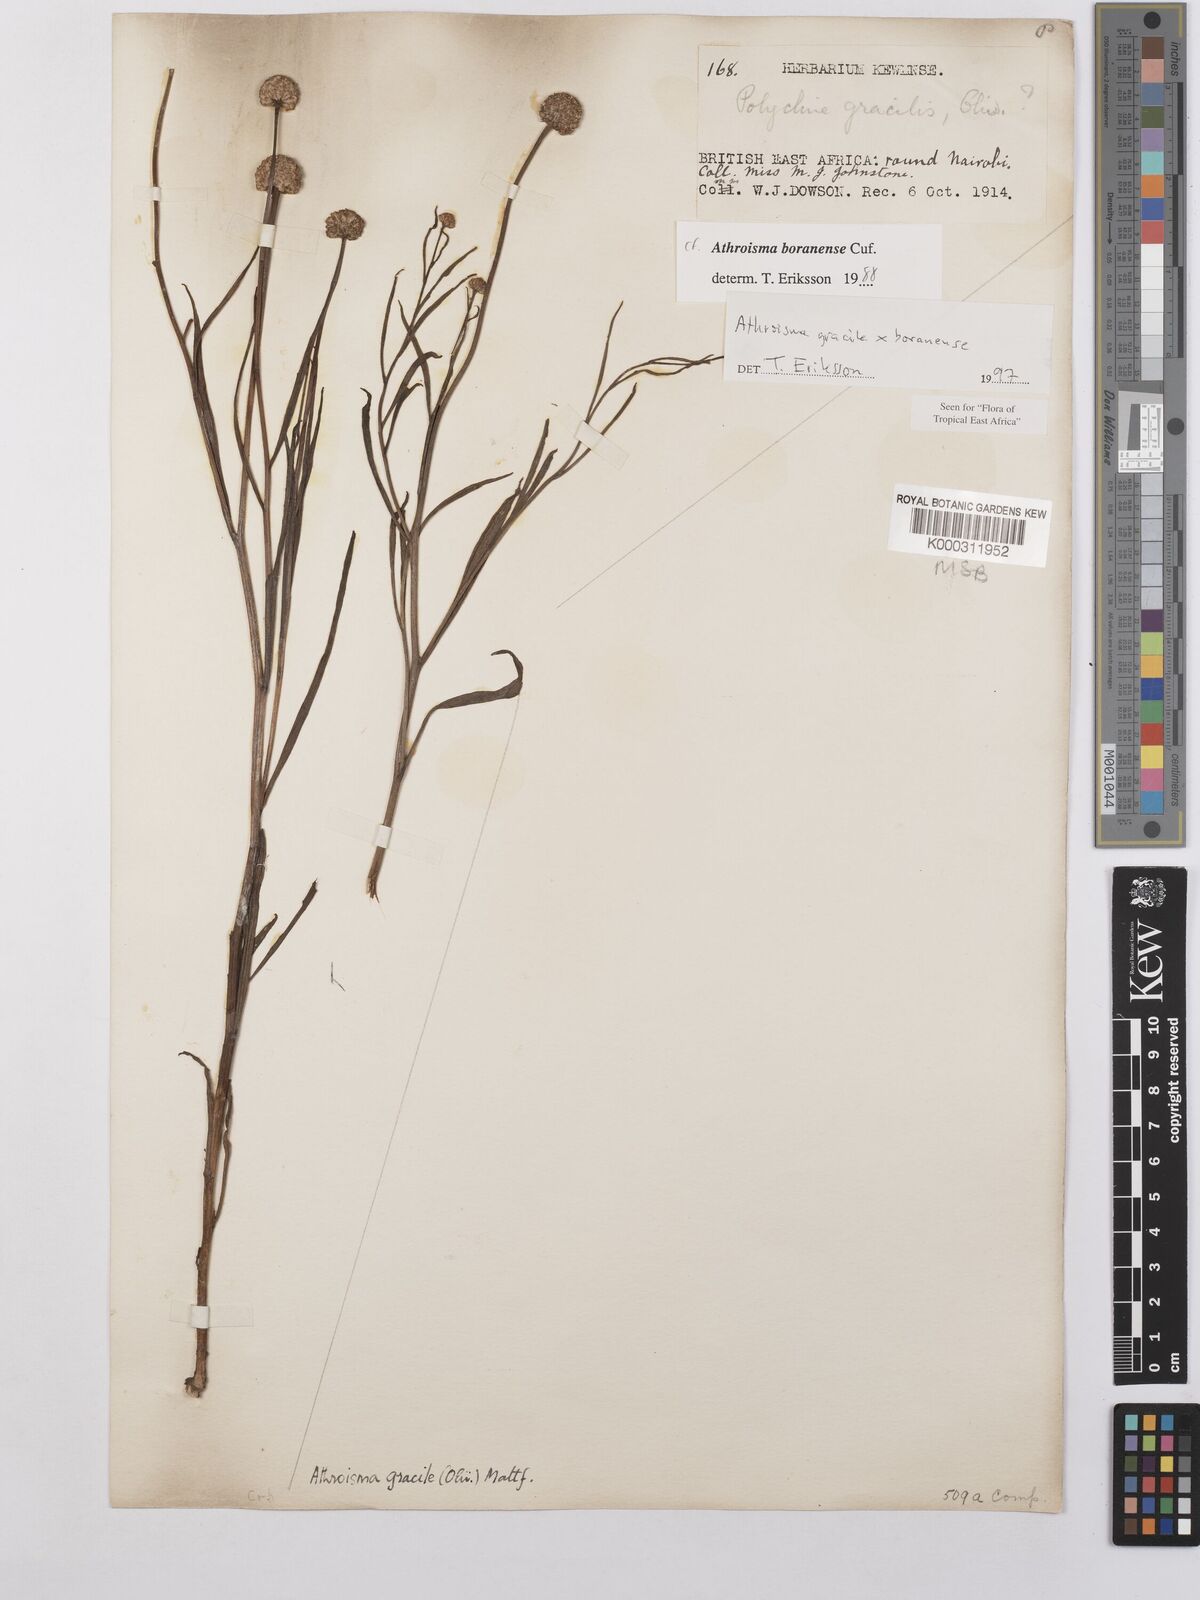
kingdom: Plantae
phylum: Tracheophyta
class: Magnoliopsida
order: Asterales
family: Asteraceae
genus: Athroisma
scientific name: Athroisma
